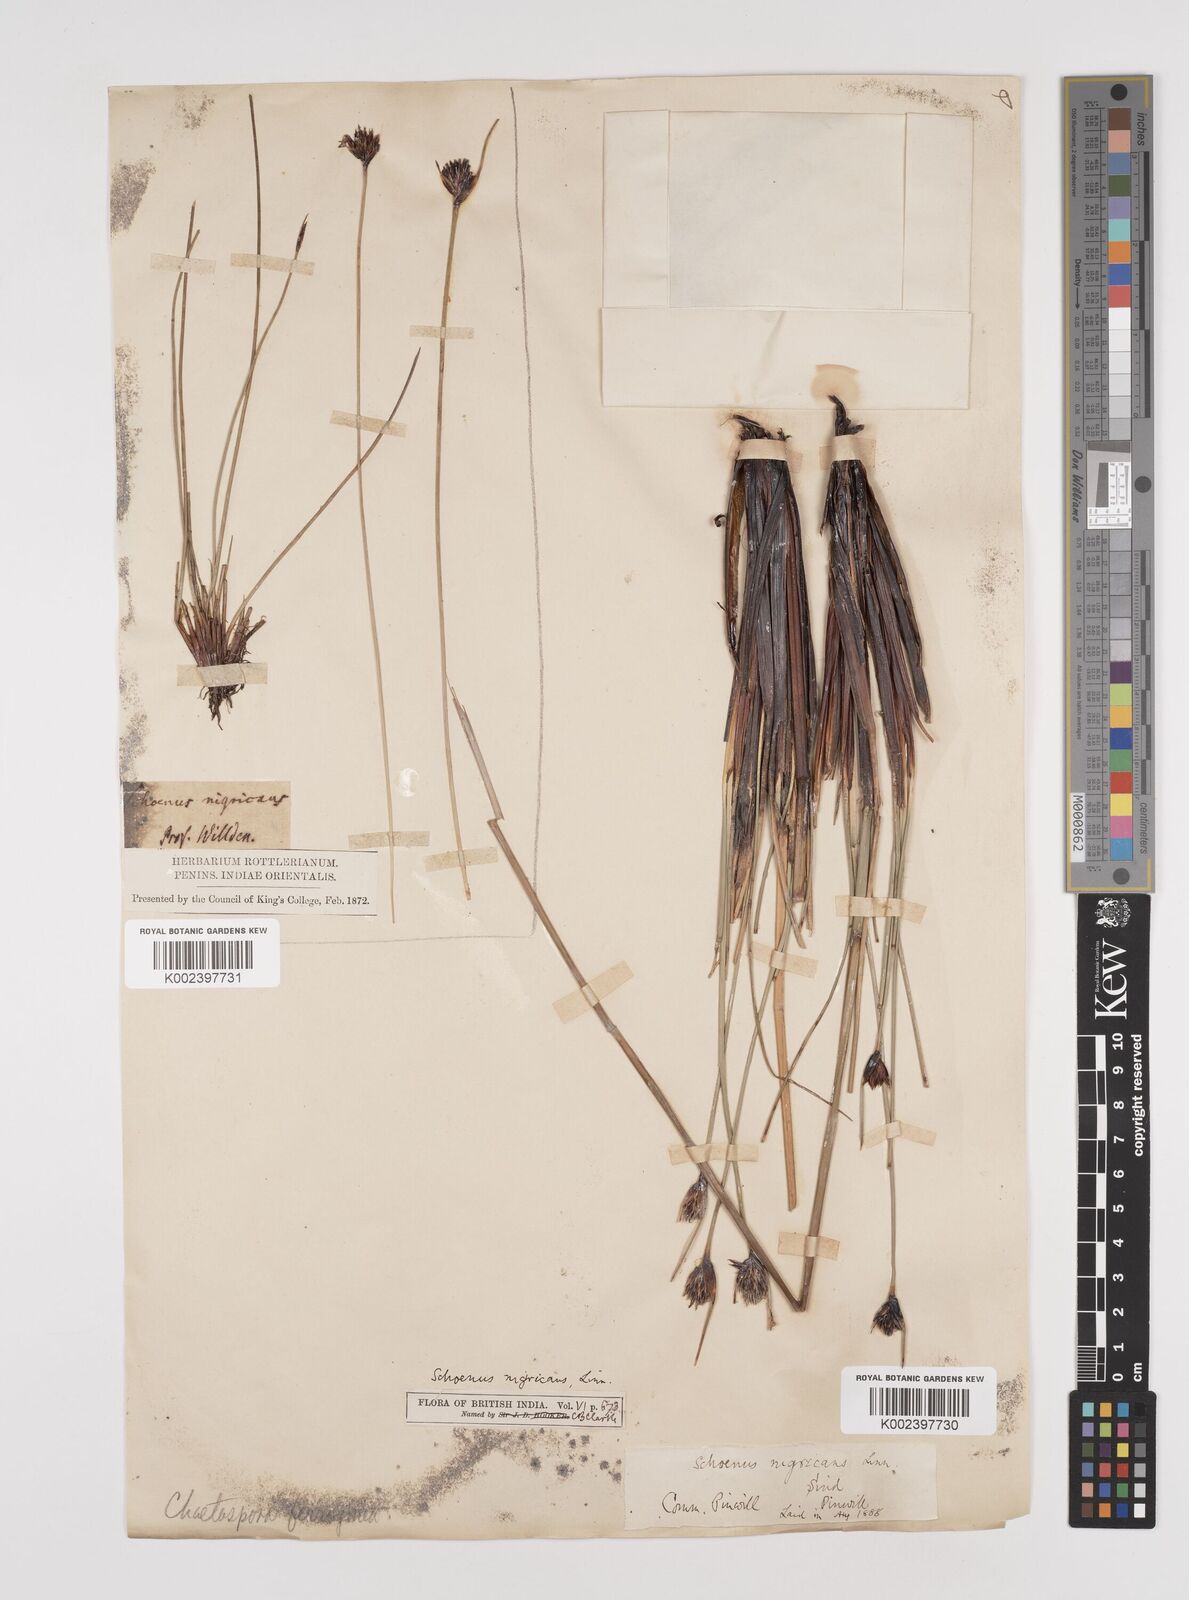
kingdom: Plantae
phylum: Tracheophyta
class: Liliopsida
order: Poales
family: Cyperaceae
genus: Schoenus
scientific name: Schoenus nigricans
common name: Black bog-rush
